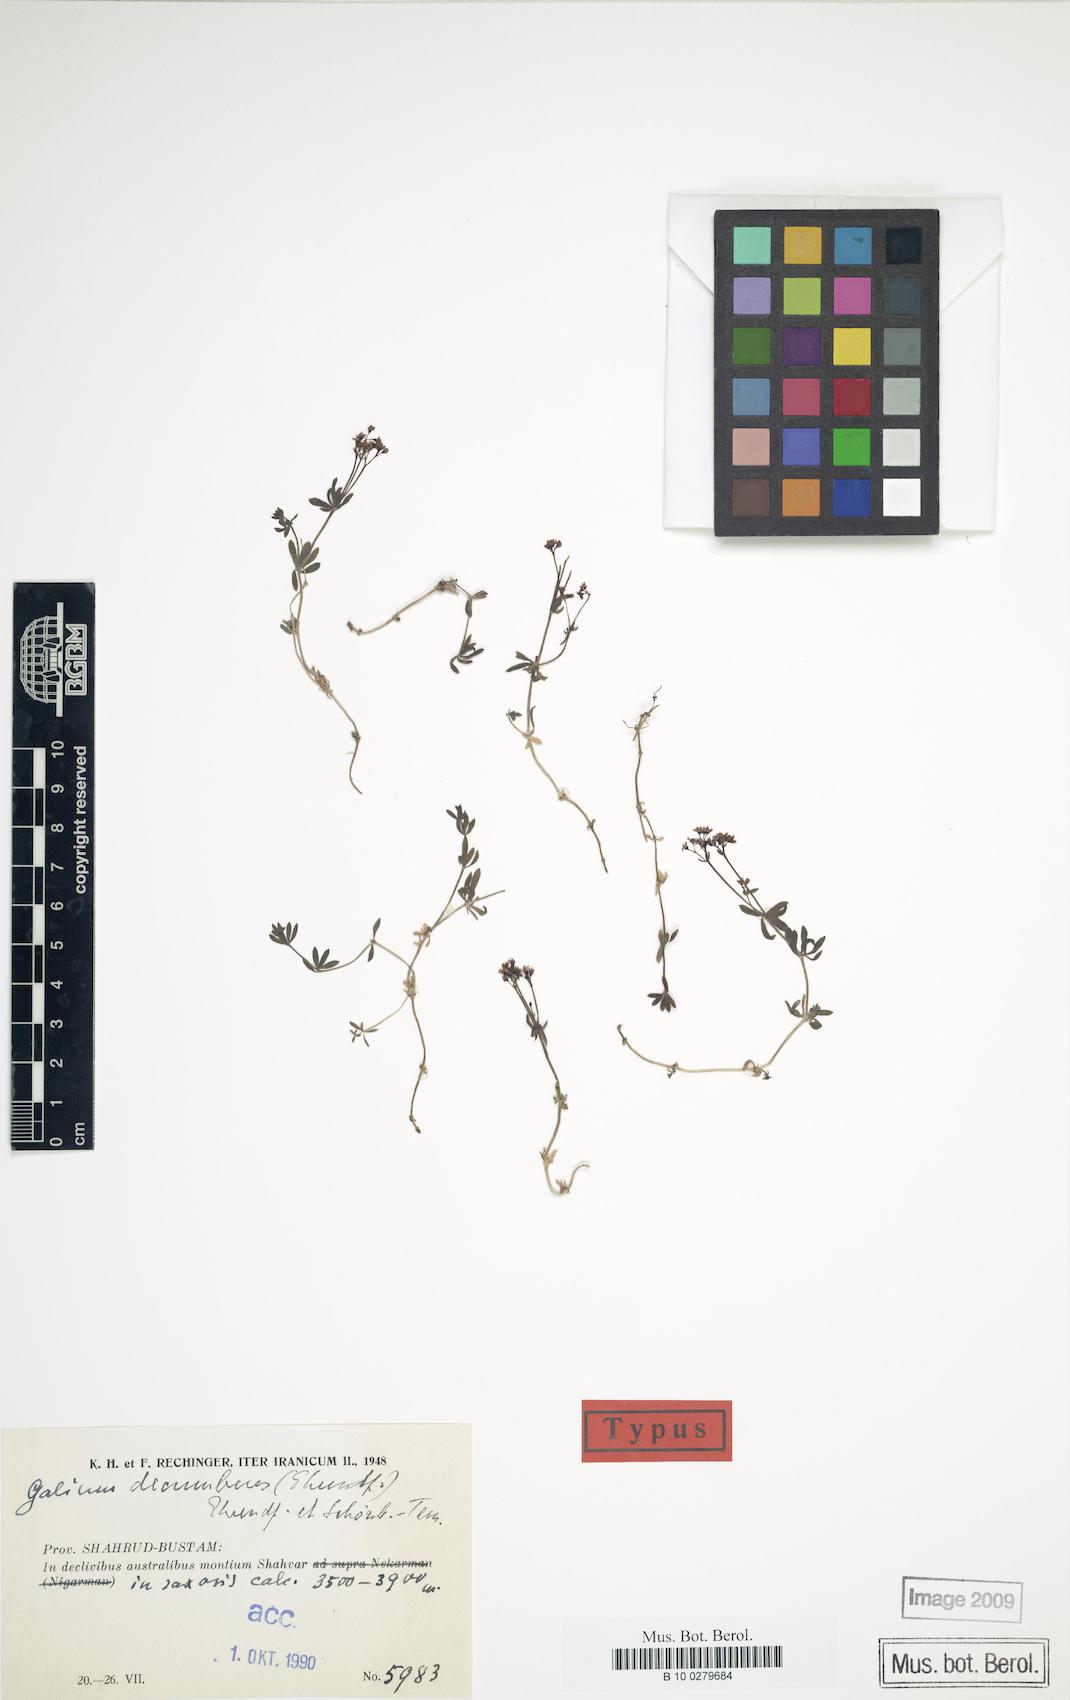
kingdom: Plantae
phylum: Tracheophyta
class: Magnoliopsida
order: Gentianales
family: Rubiaceae
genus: Galium
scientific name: Galium decumbens
